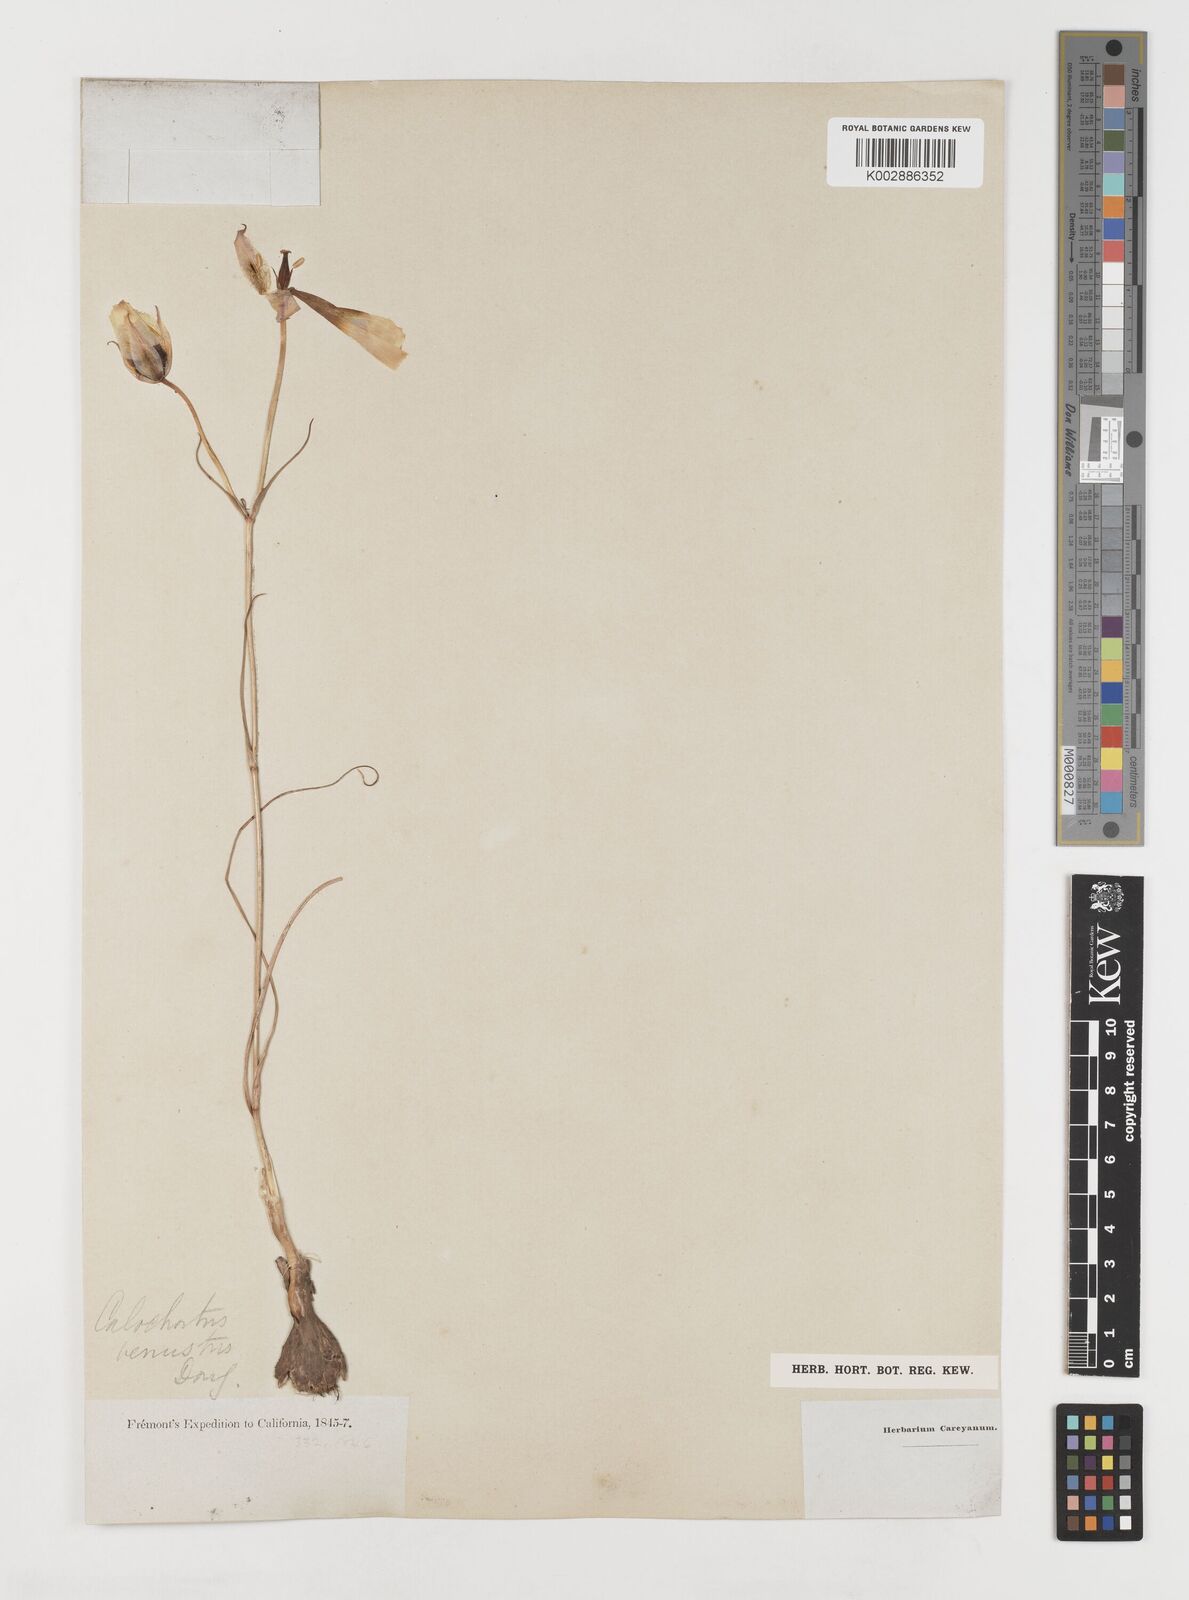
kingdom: Plantae
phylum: Tracheophyta
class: Liliopsida
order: Liliales
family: Liliaceae
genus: Calochortus
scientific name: Calochortus venustus
